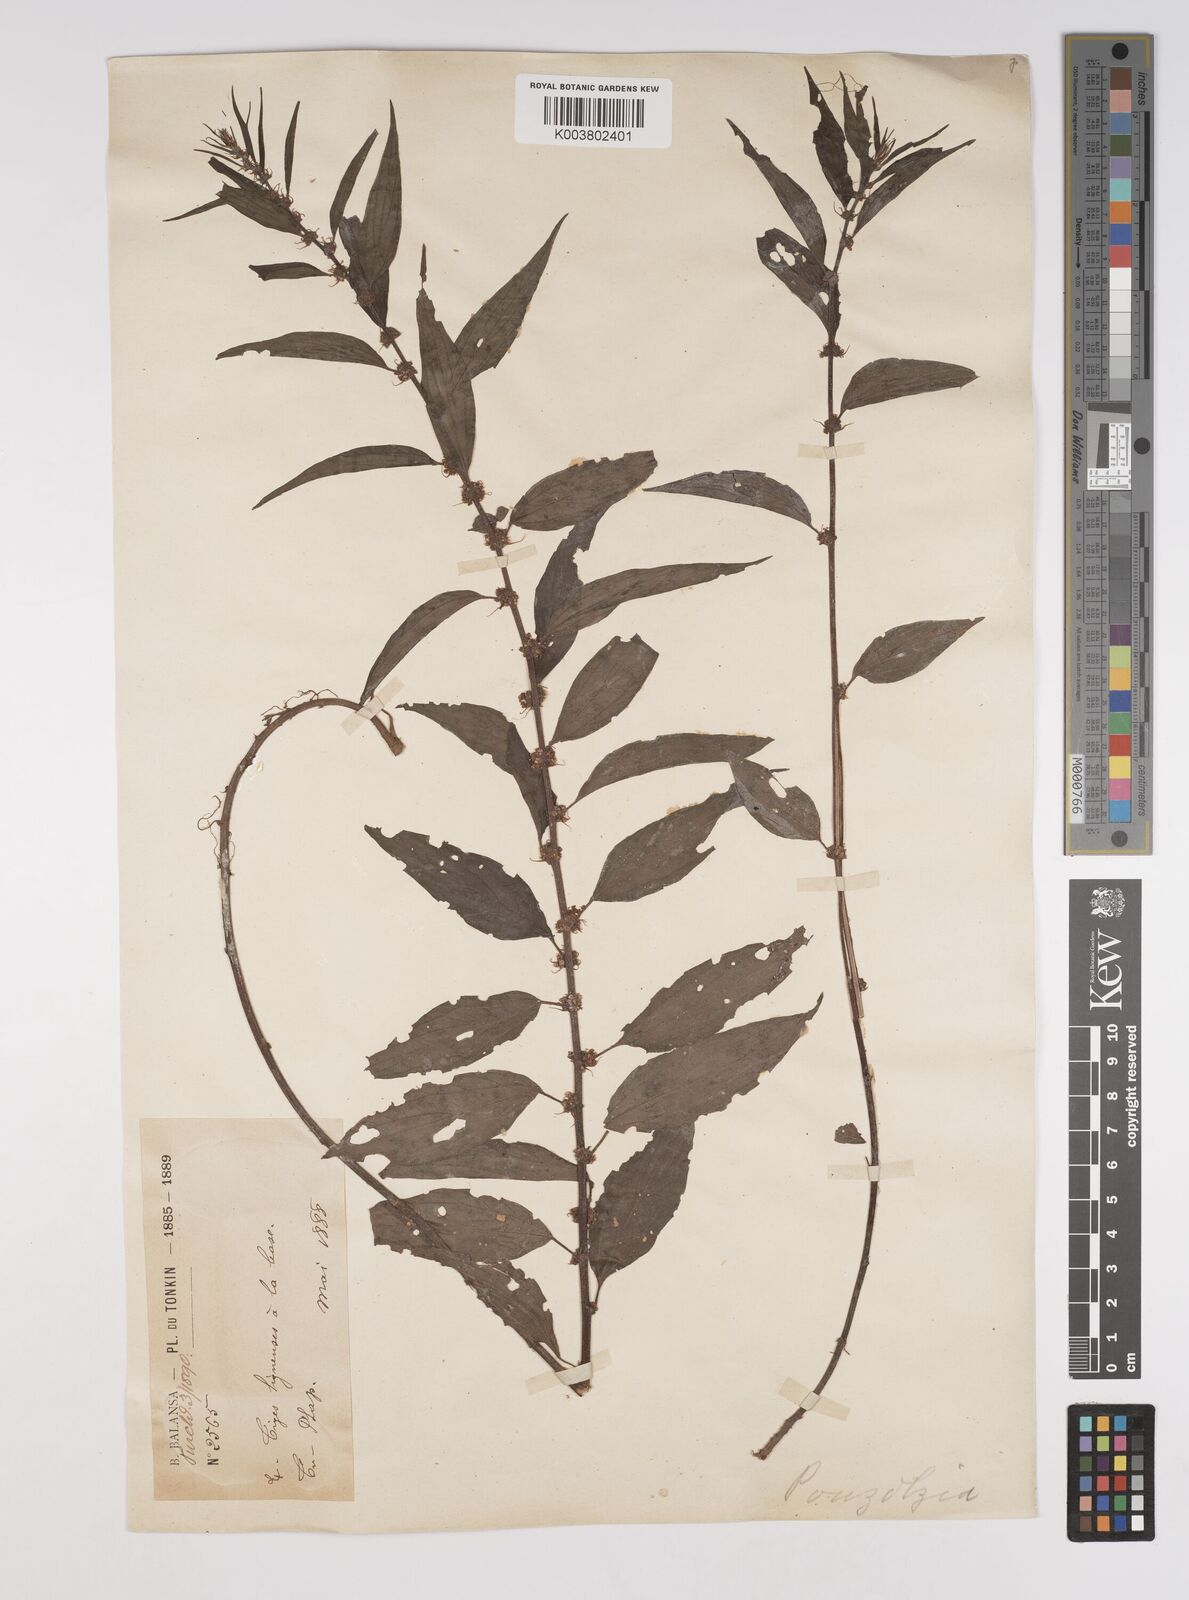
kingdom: Plantae
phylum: Tracheophyta
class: Magnoliopsida
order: Rosales
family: Urticaceae
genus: Pouzolzia
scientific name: Pouzolzia zeylanica
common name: Graceful pouzolzsbush
